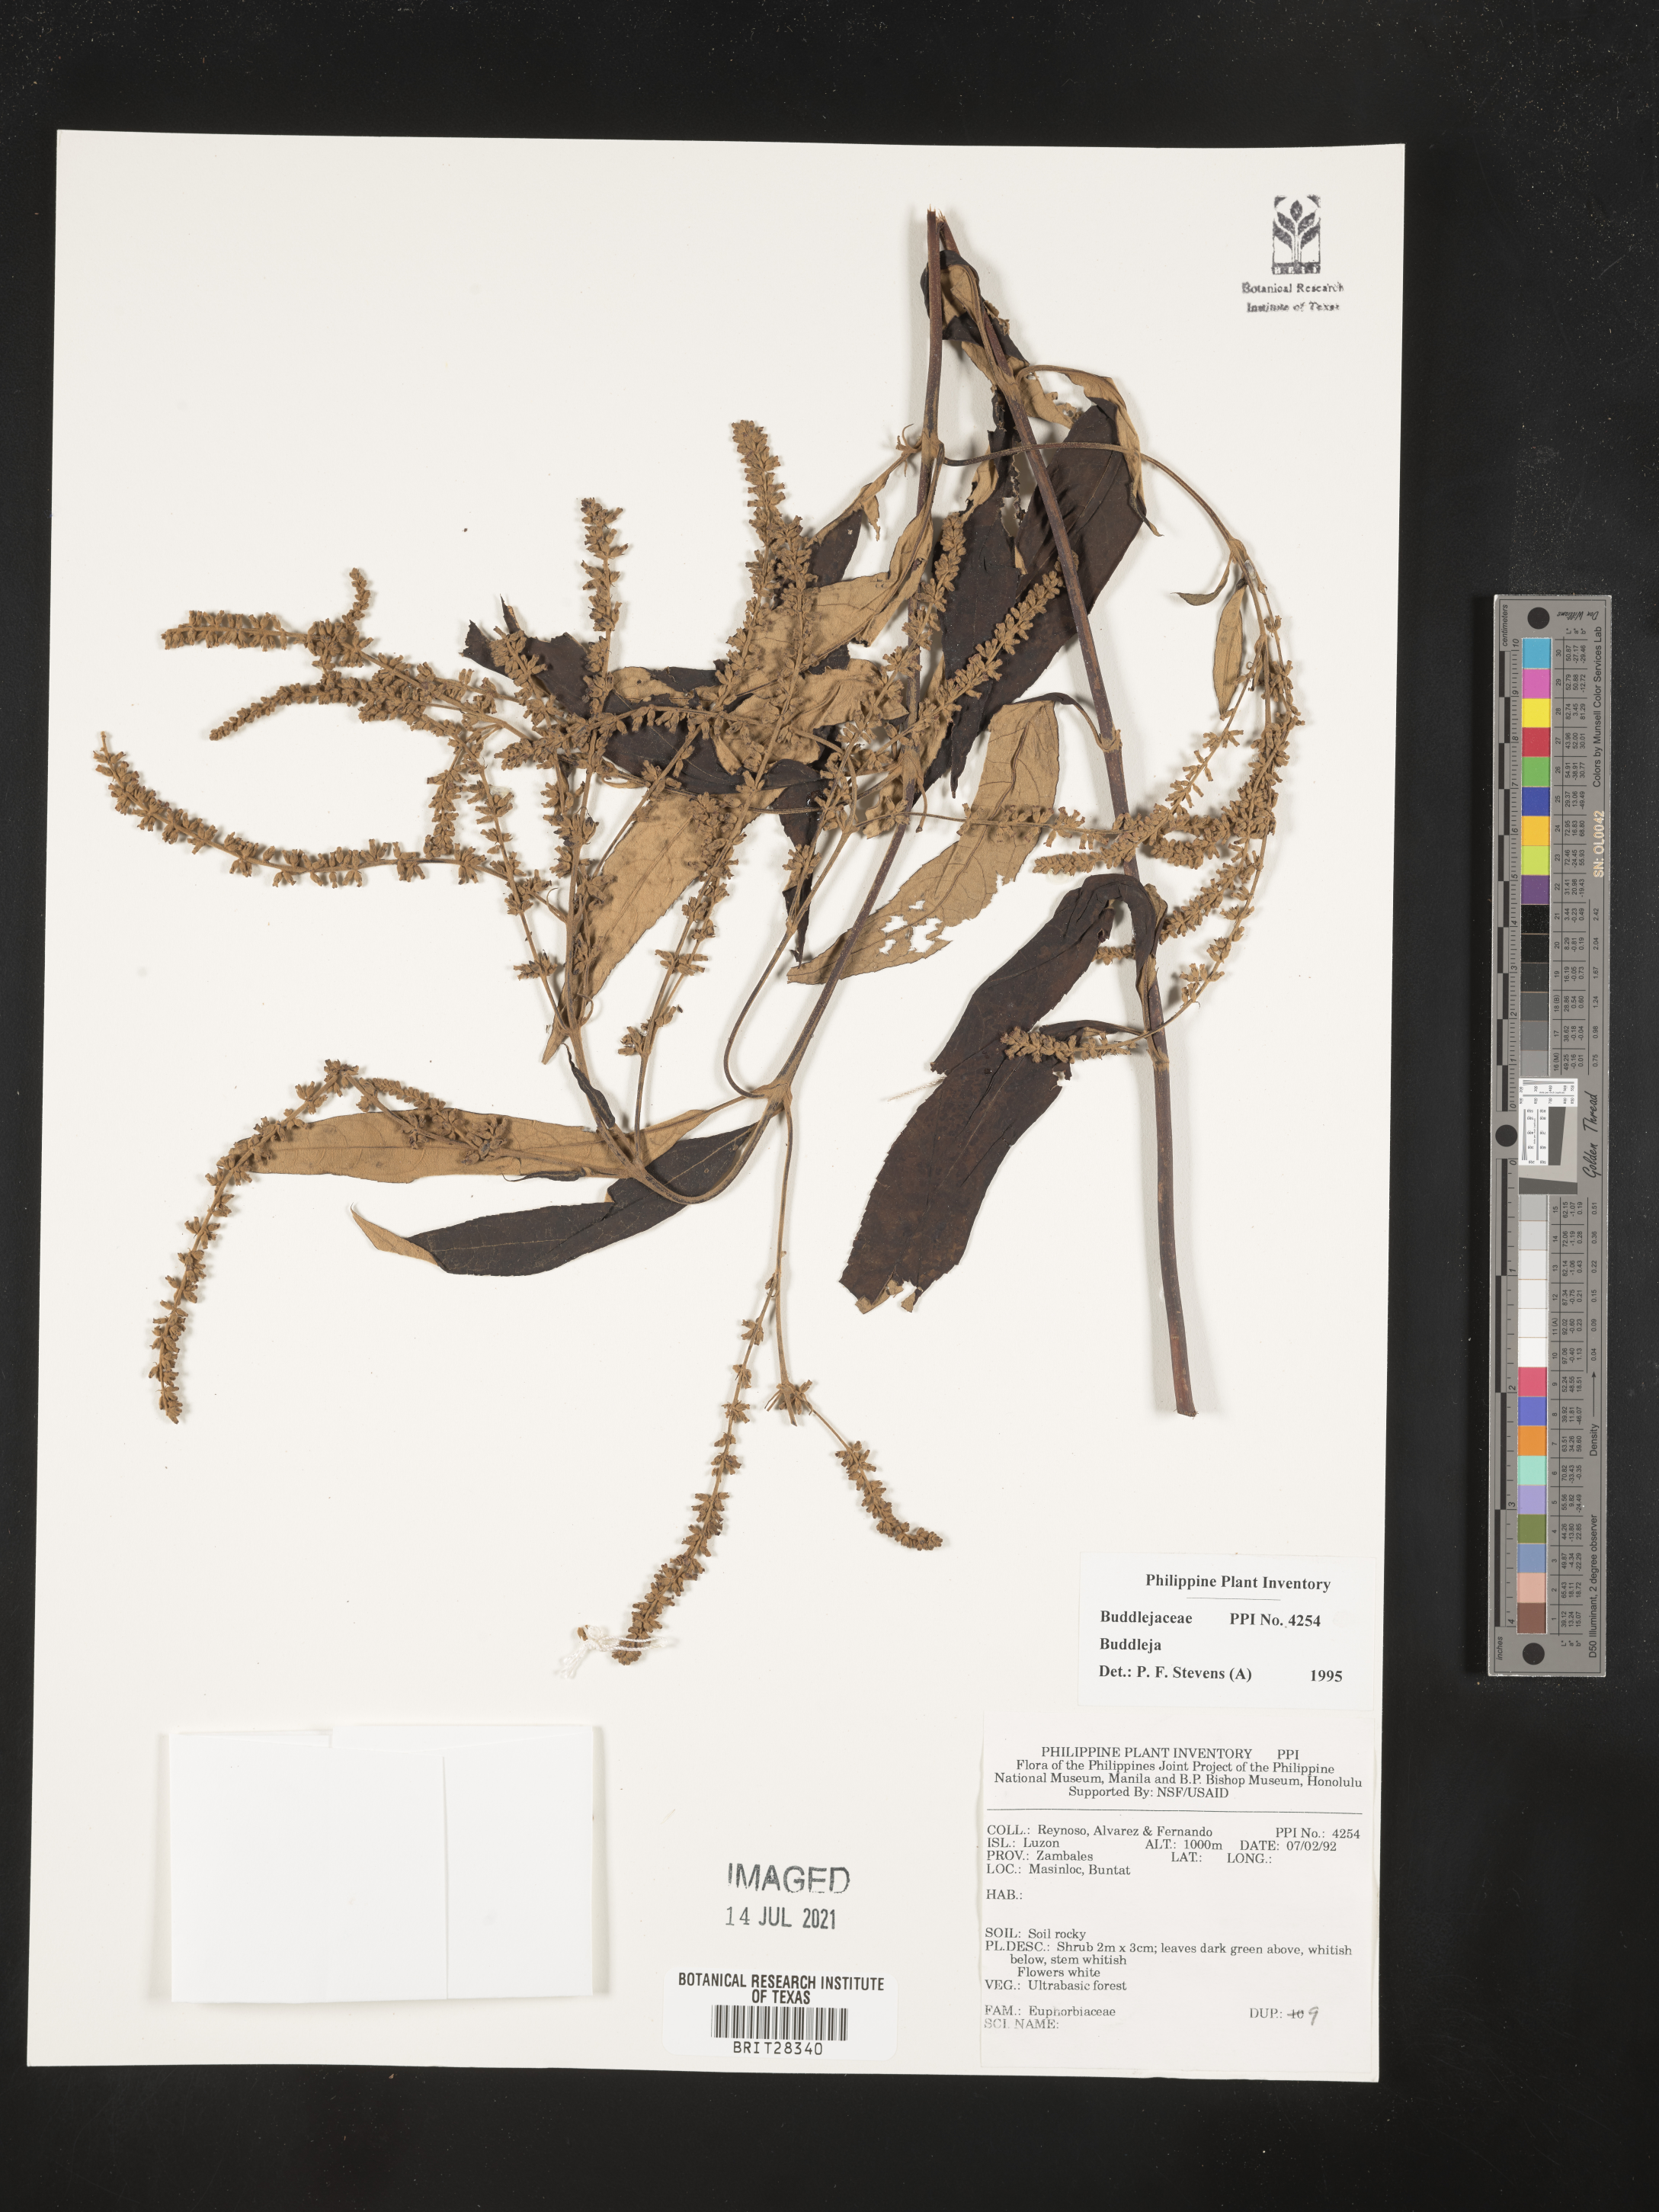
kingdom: Plantae
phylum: Tracheophyta
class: Magnoliopsida
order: Lamiales
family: Scrophulariaceae
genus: Buddleja
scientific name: Buddleja
